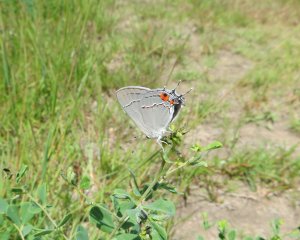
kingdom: Animalia
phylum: Arthropoda
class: Insecta
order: Lepidoptera
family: Lycaenidae
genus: Strymon
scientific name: Strymon melinus
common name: Gray Hairstreak
